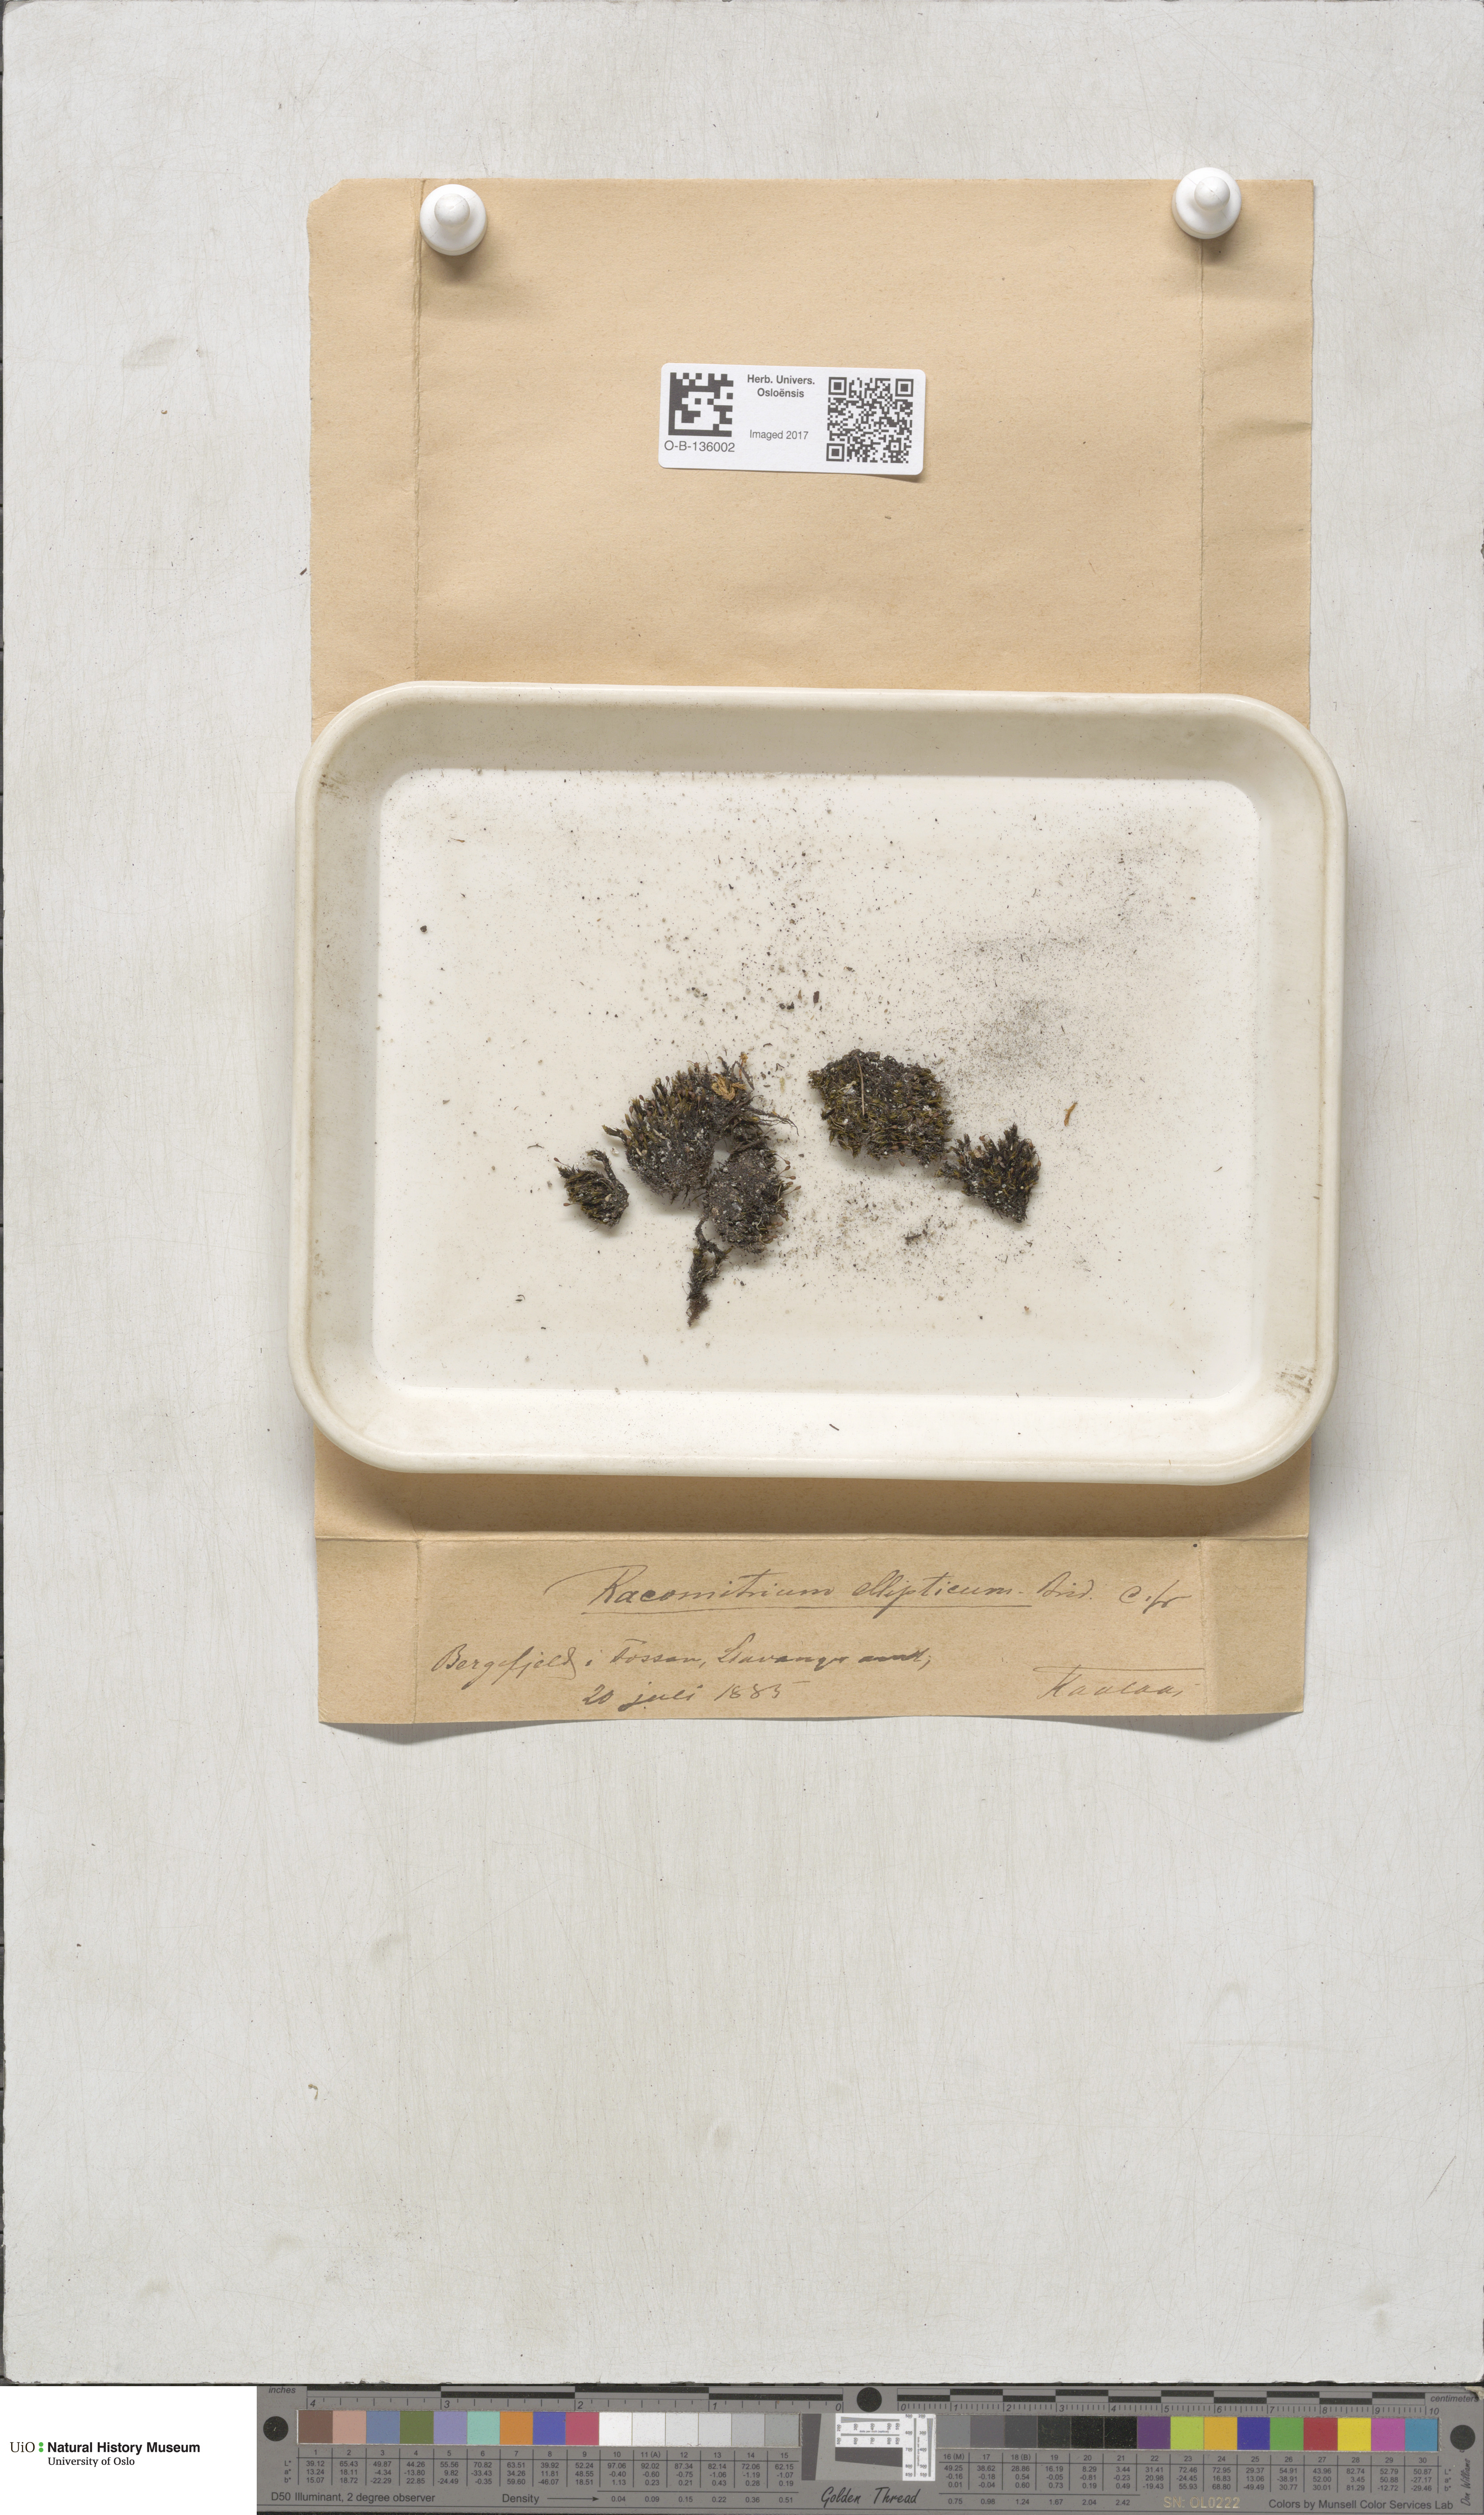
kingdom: Plantae
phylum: Bryophyta
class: Bryopsida
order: Grimmiales
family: Grimmiaceae
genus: Bucklandiella
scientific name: Bucklandiella elliptica
